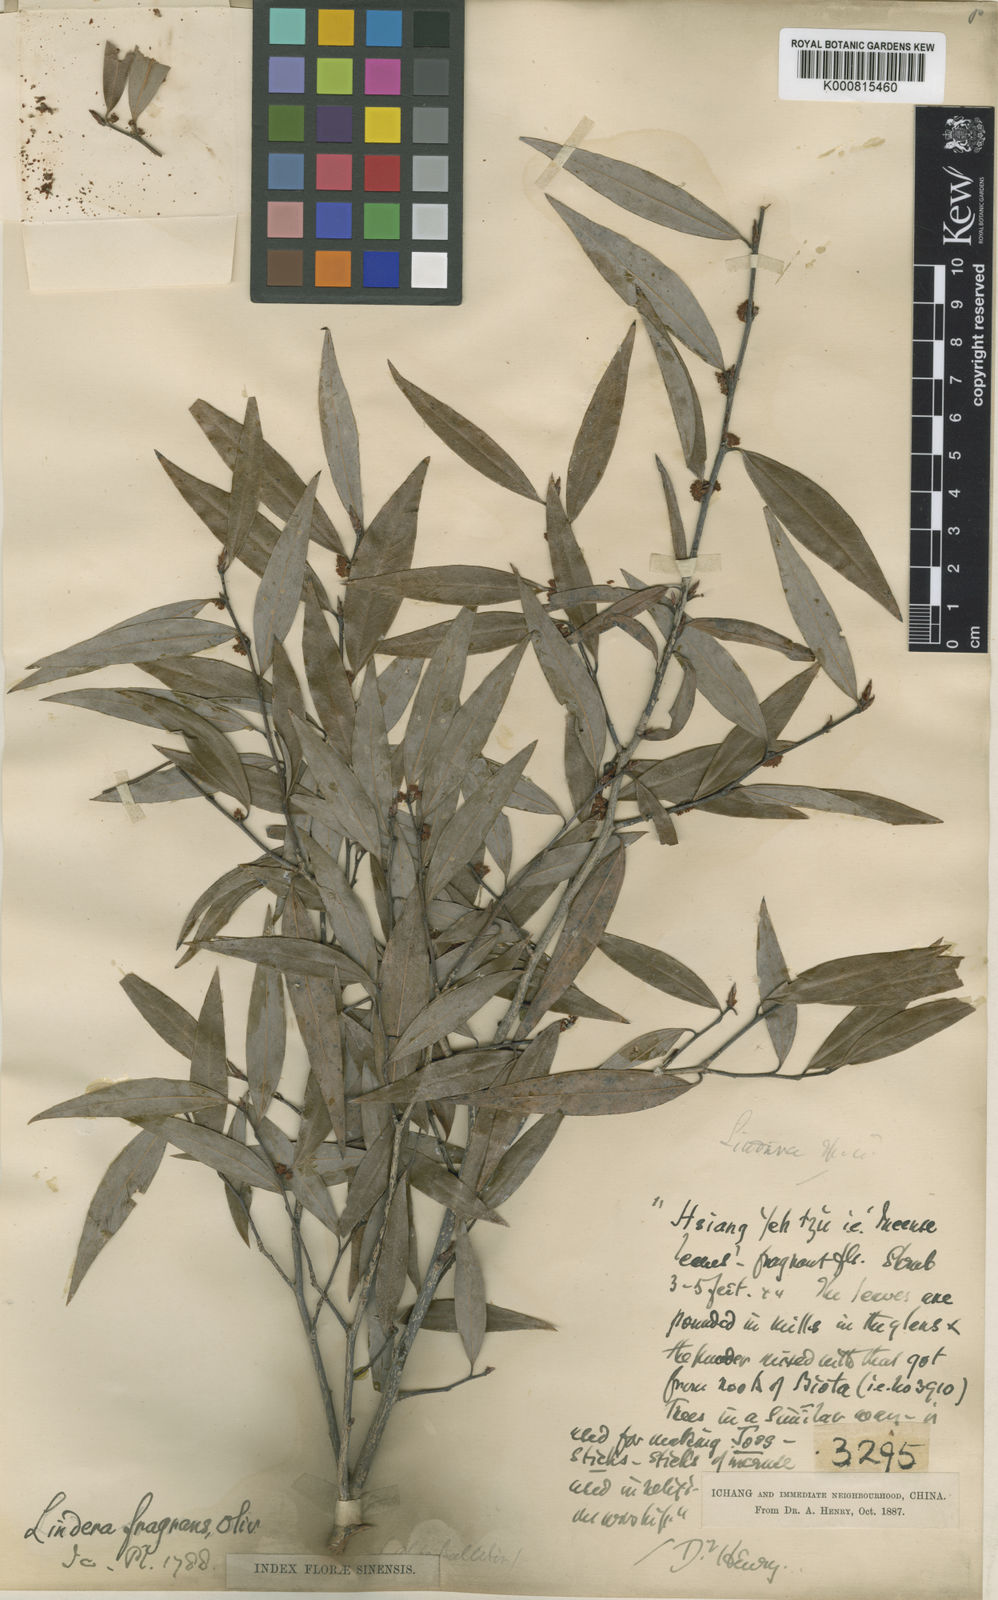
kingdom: Plantae
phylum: Tracheophyta
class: Magnoliopsida
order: Laurales
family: Lauraceae
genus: Lindera
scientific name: Lindera fragrans
